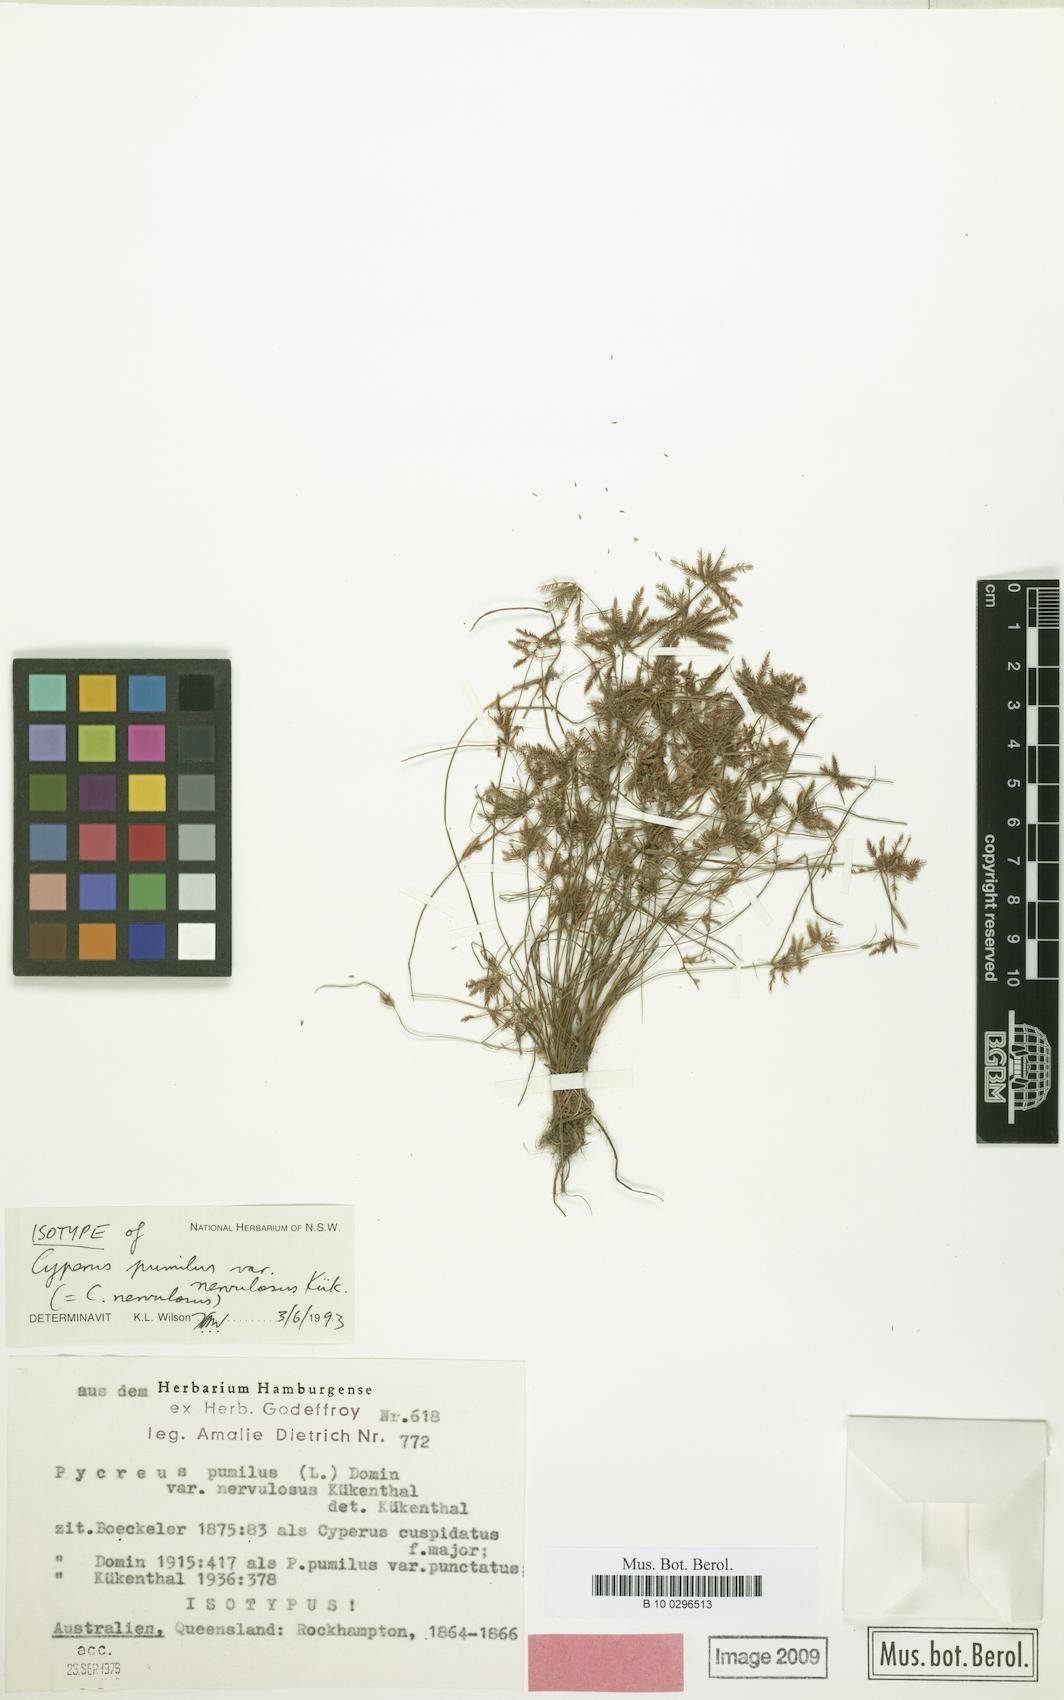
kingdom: Plantae
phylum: Tracheophyta
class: Liliopsida
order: Poales
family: Cyperaceae
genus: Cyperus
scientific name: Cyperus cuspidatus
